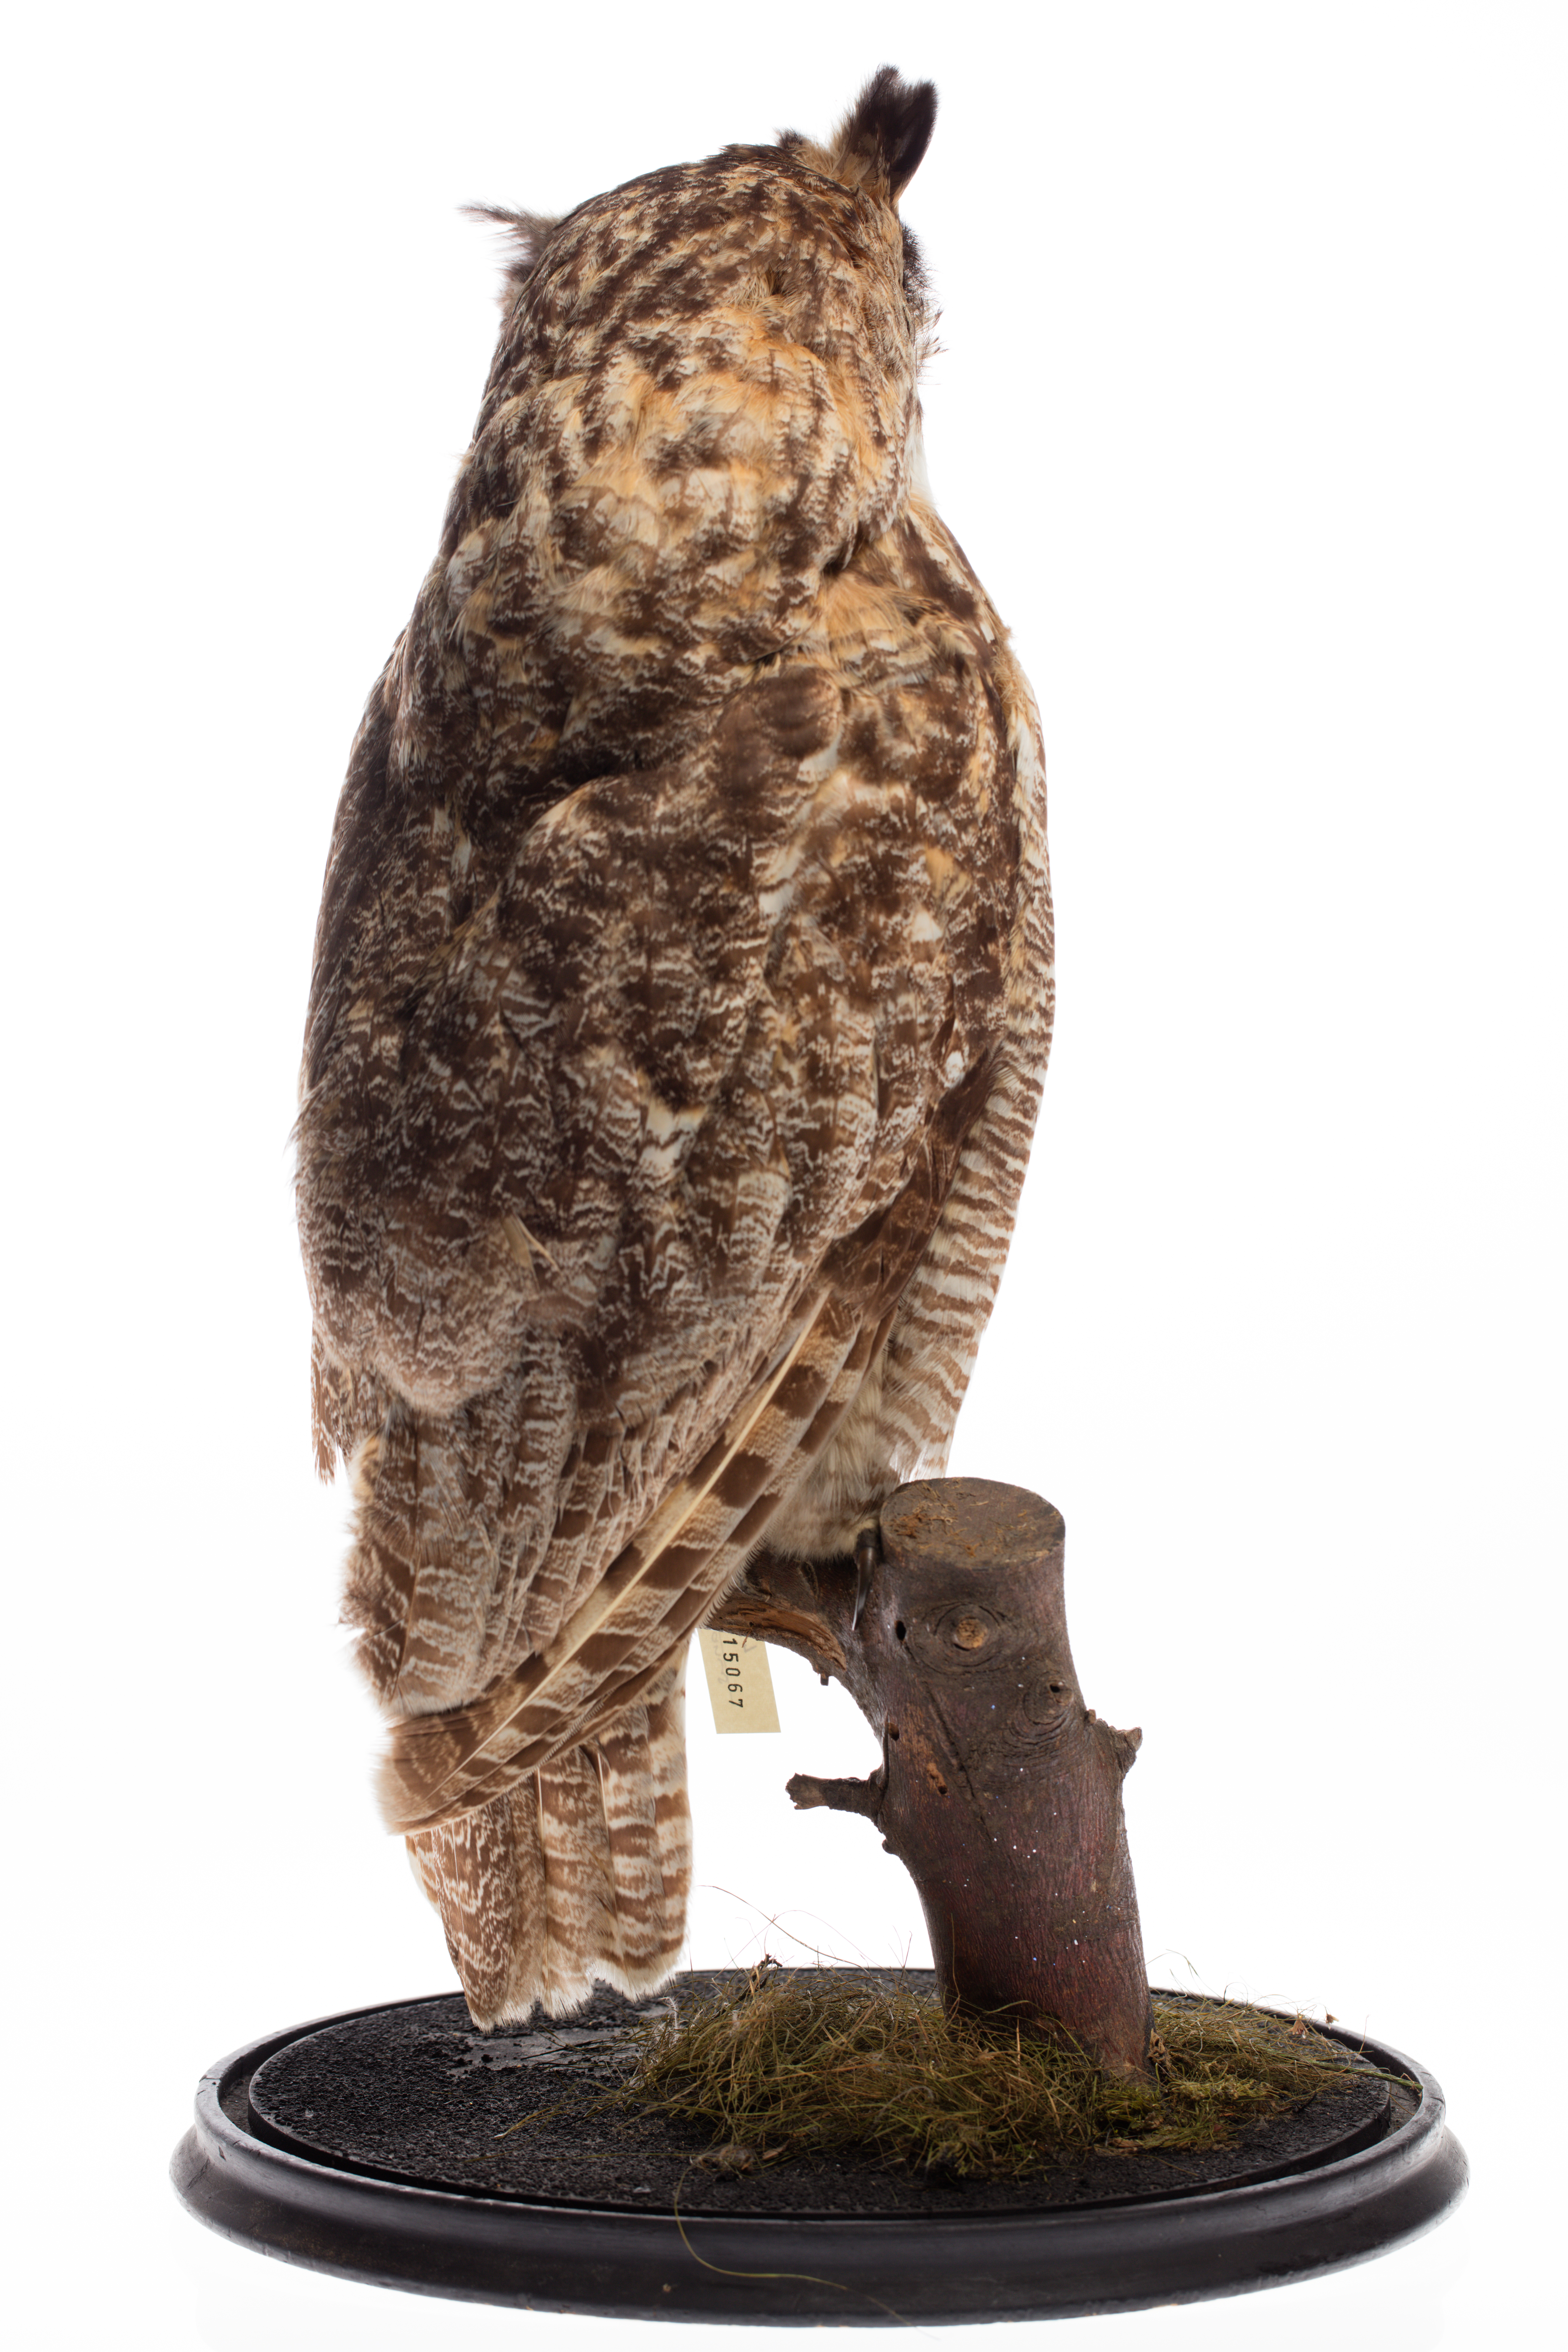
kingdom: Animalia
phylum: Chordata
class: Aves
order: Strigiformes
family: Strigidae
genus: Bubo
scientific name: Bubo virginianus
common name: Great horned owl
